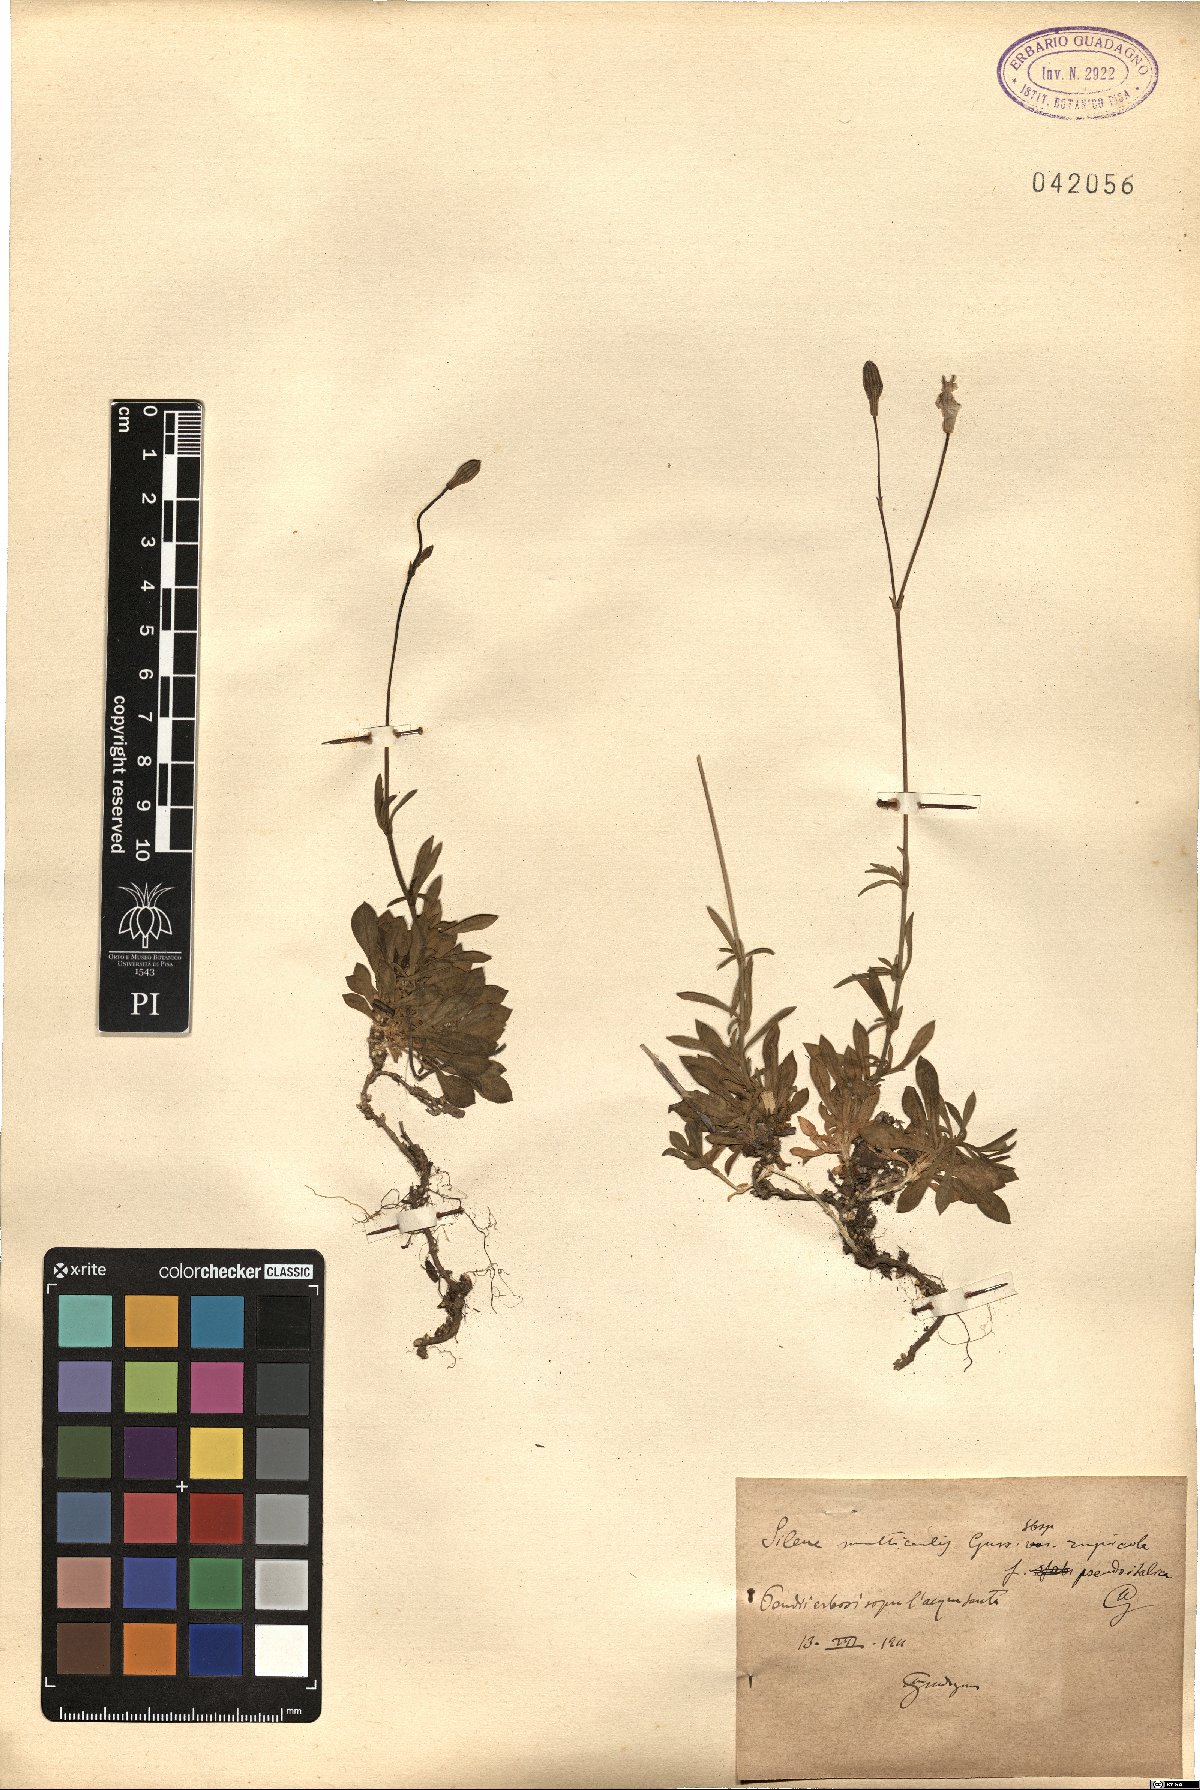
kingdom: Plantae
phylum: Tracheophyta
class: Magnoliopsida
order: Caryophyllales
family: Caryophyllaceae
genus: Silene
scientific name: Silene saxifraga
